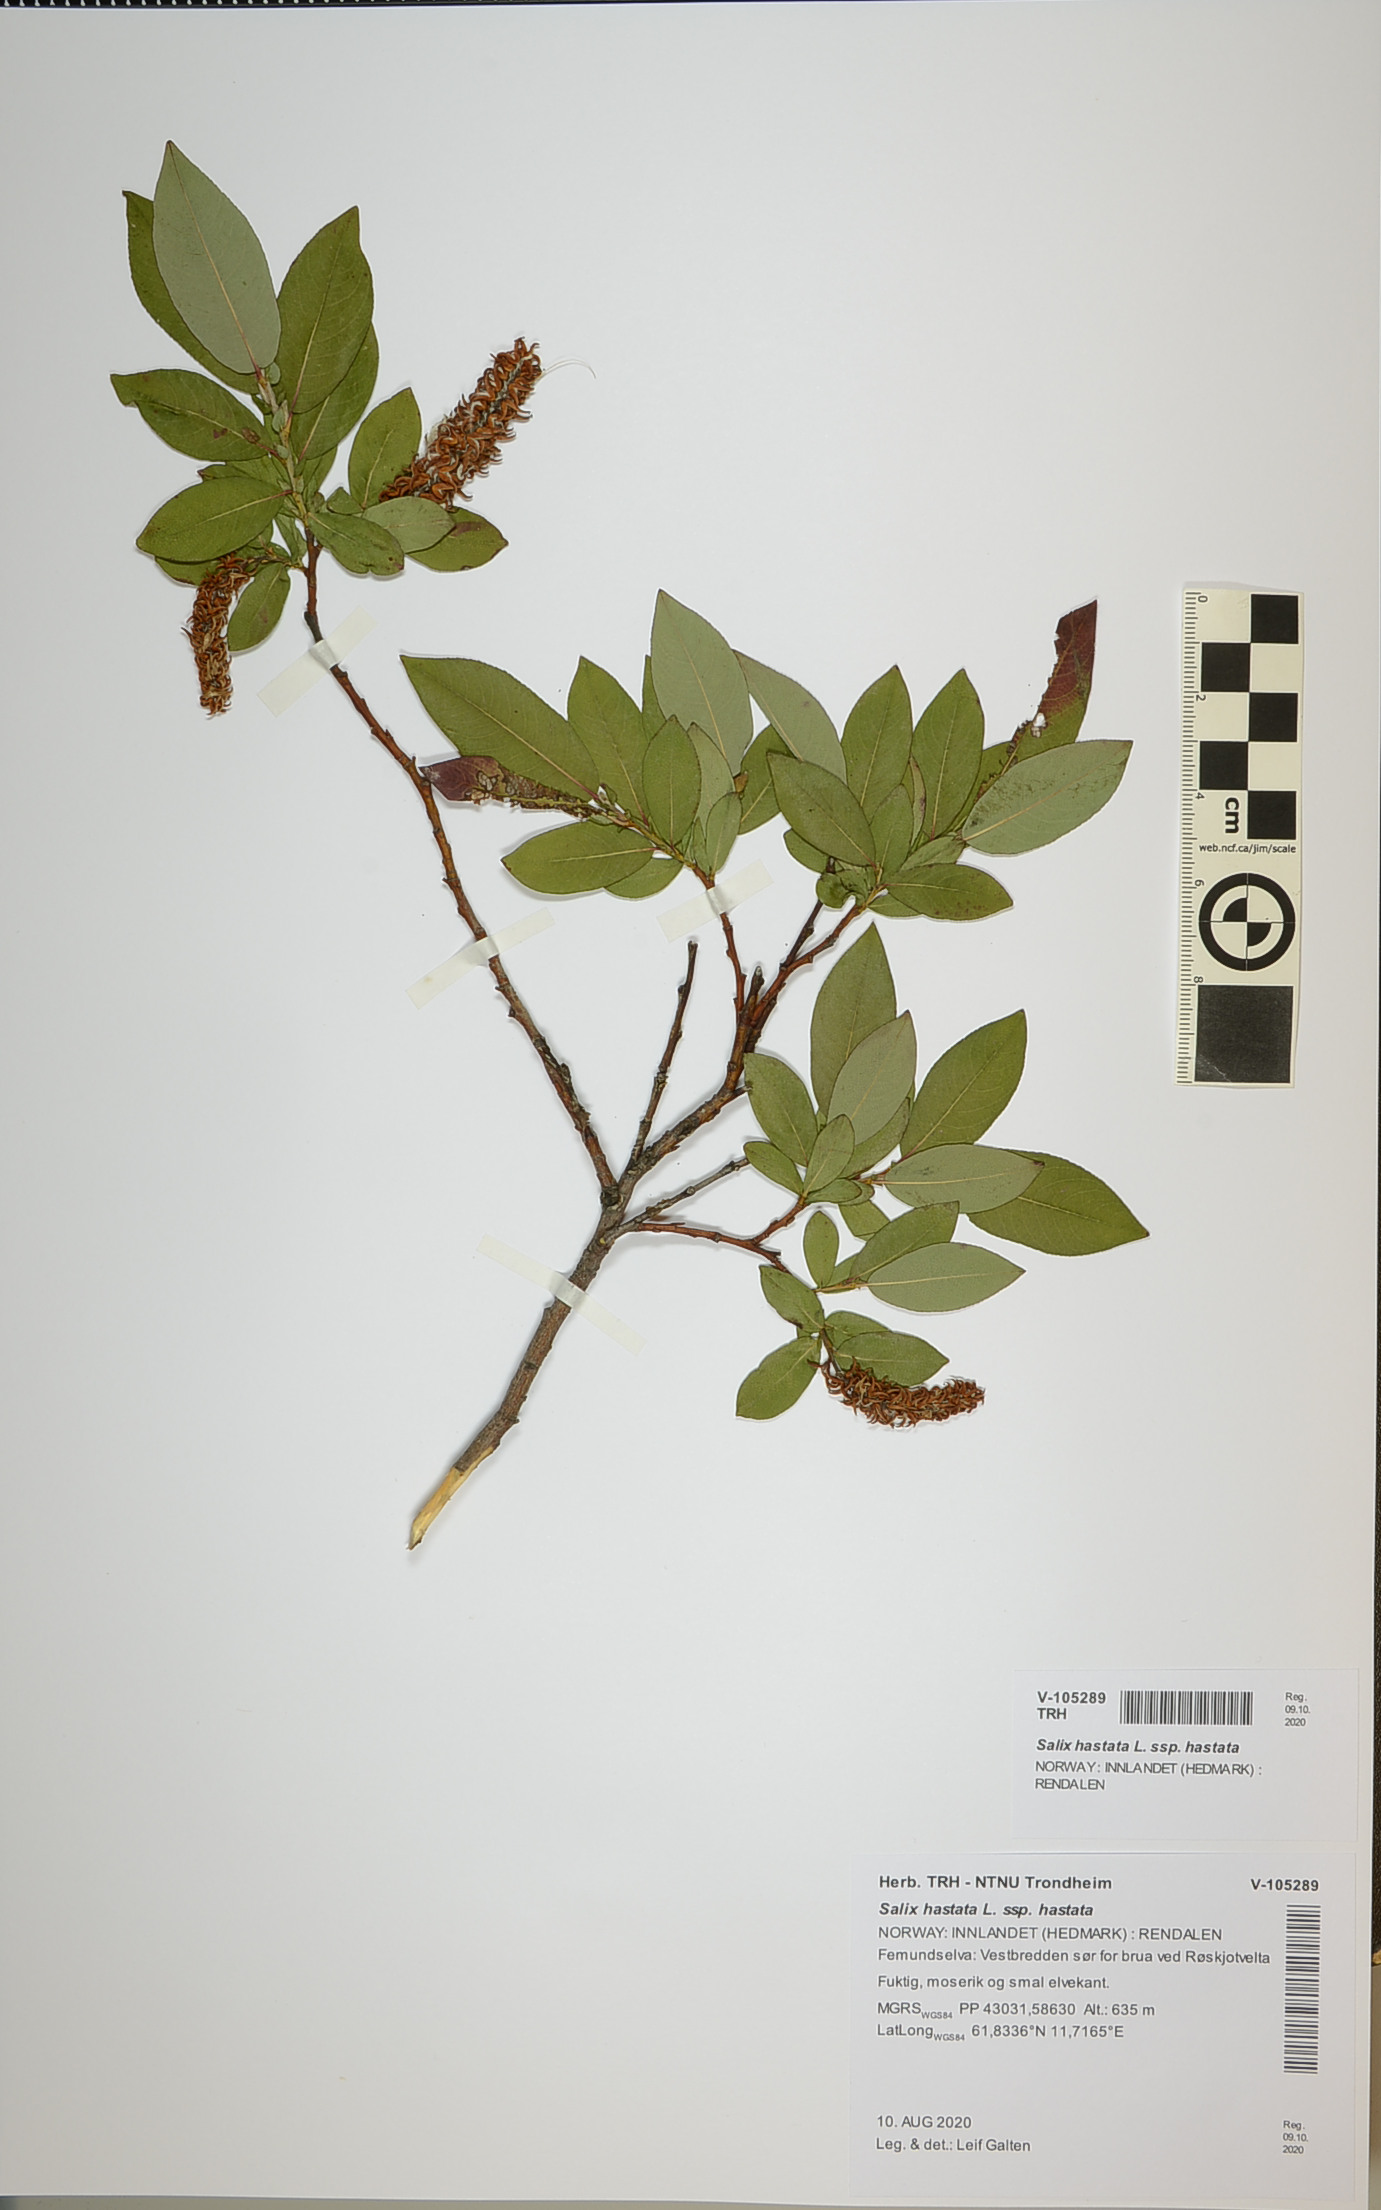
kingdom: Plantae
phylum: Tracheophyta
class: Magnoliopsida
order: Malpighiales
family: Salicaceae
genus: Salix
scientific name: Salix hastata
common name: Halberd willow
